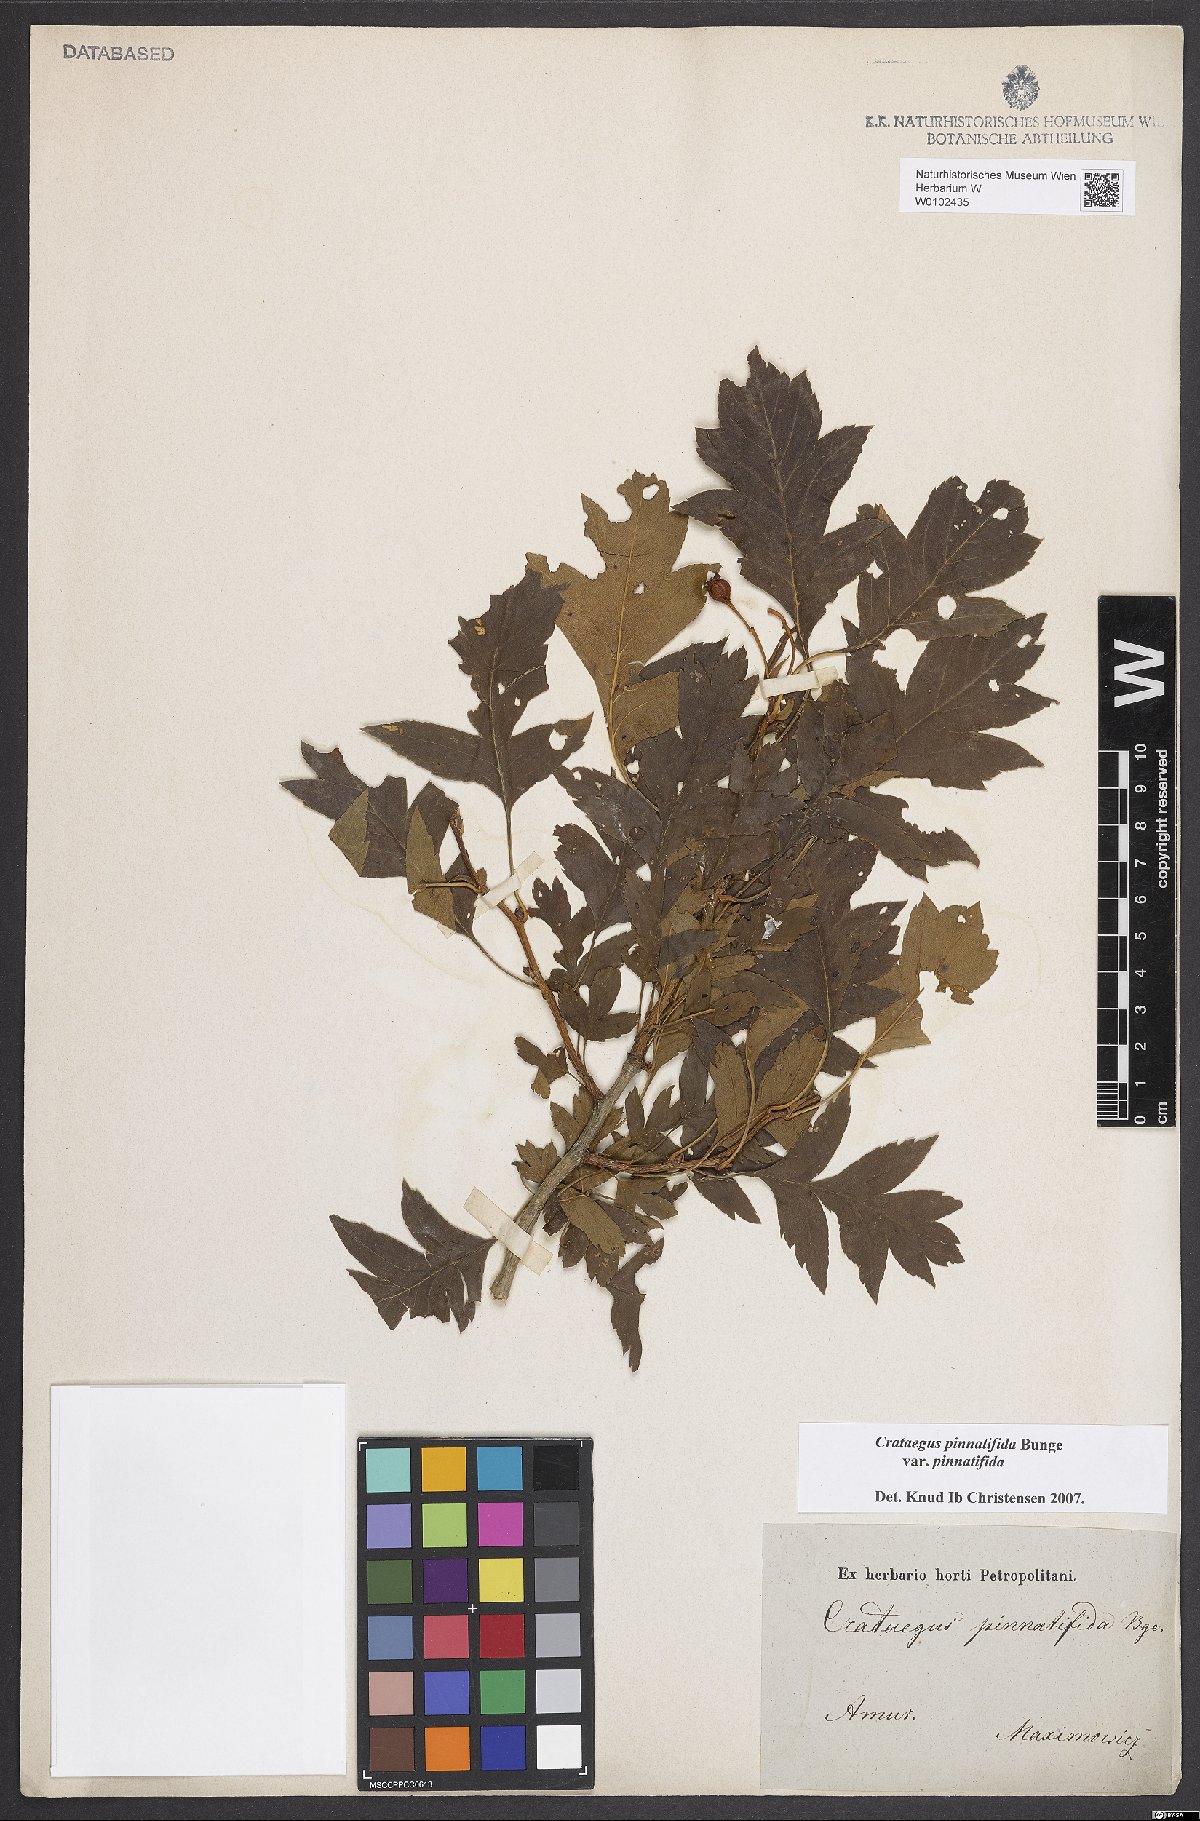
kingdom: Plantae
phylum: Tracheophyta
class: Magnoliopsida
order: Rosales
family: Rosaceae
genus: Crataegus
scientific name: Crataegus pinnatifida
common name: Chinese haw
